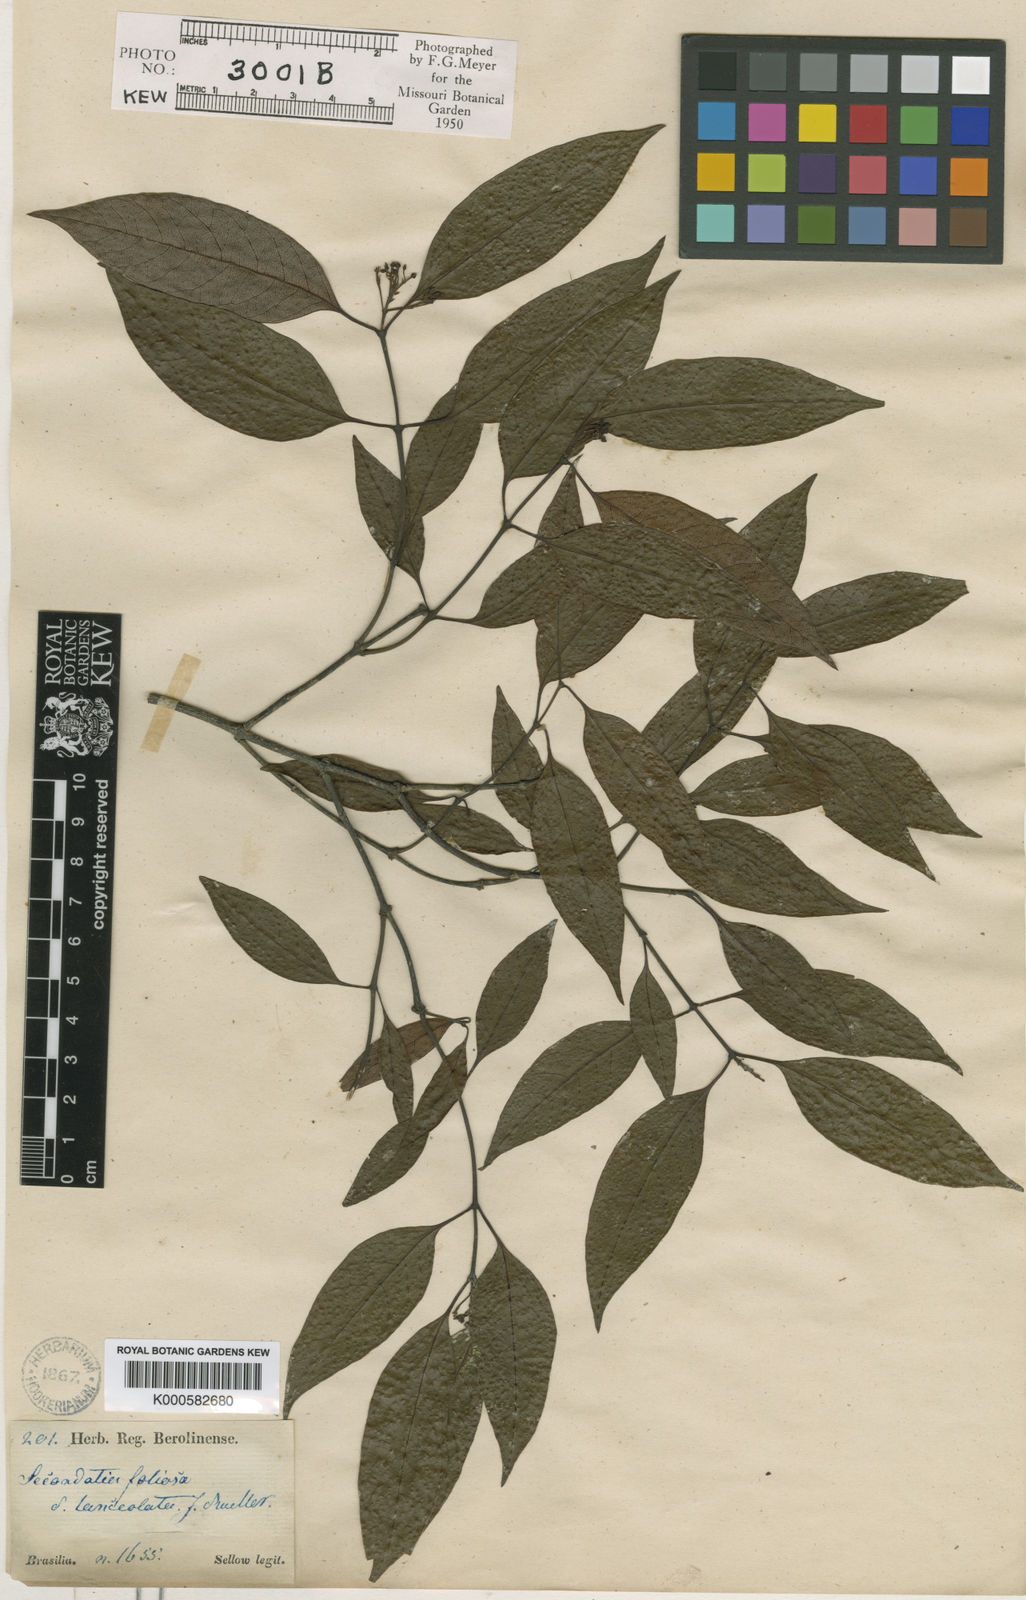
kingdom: Plantae
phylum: Tracheophyta
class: Magnoliopsida
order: Gentianales
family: Apocynaceae
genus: Secondatia
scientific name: Secondatia floribunda
